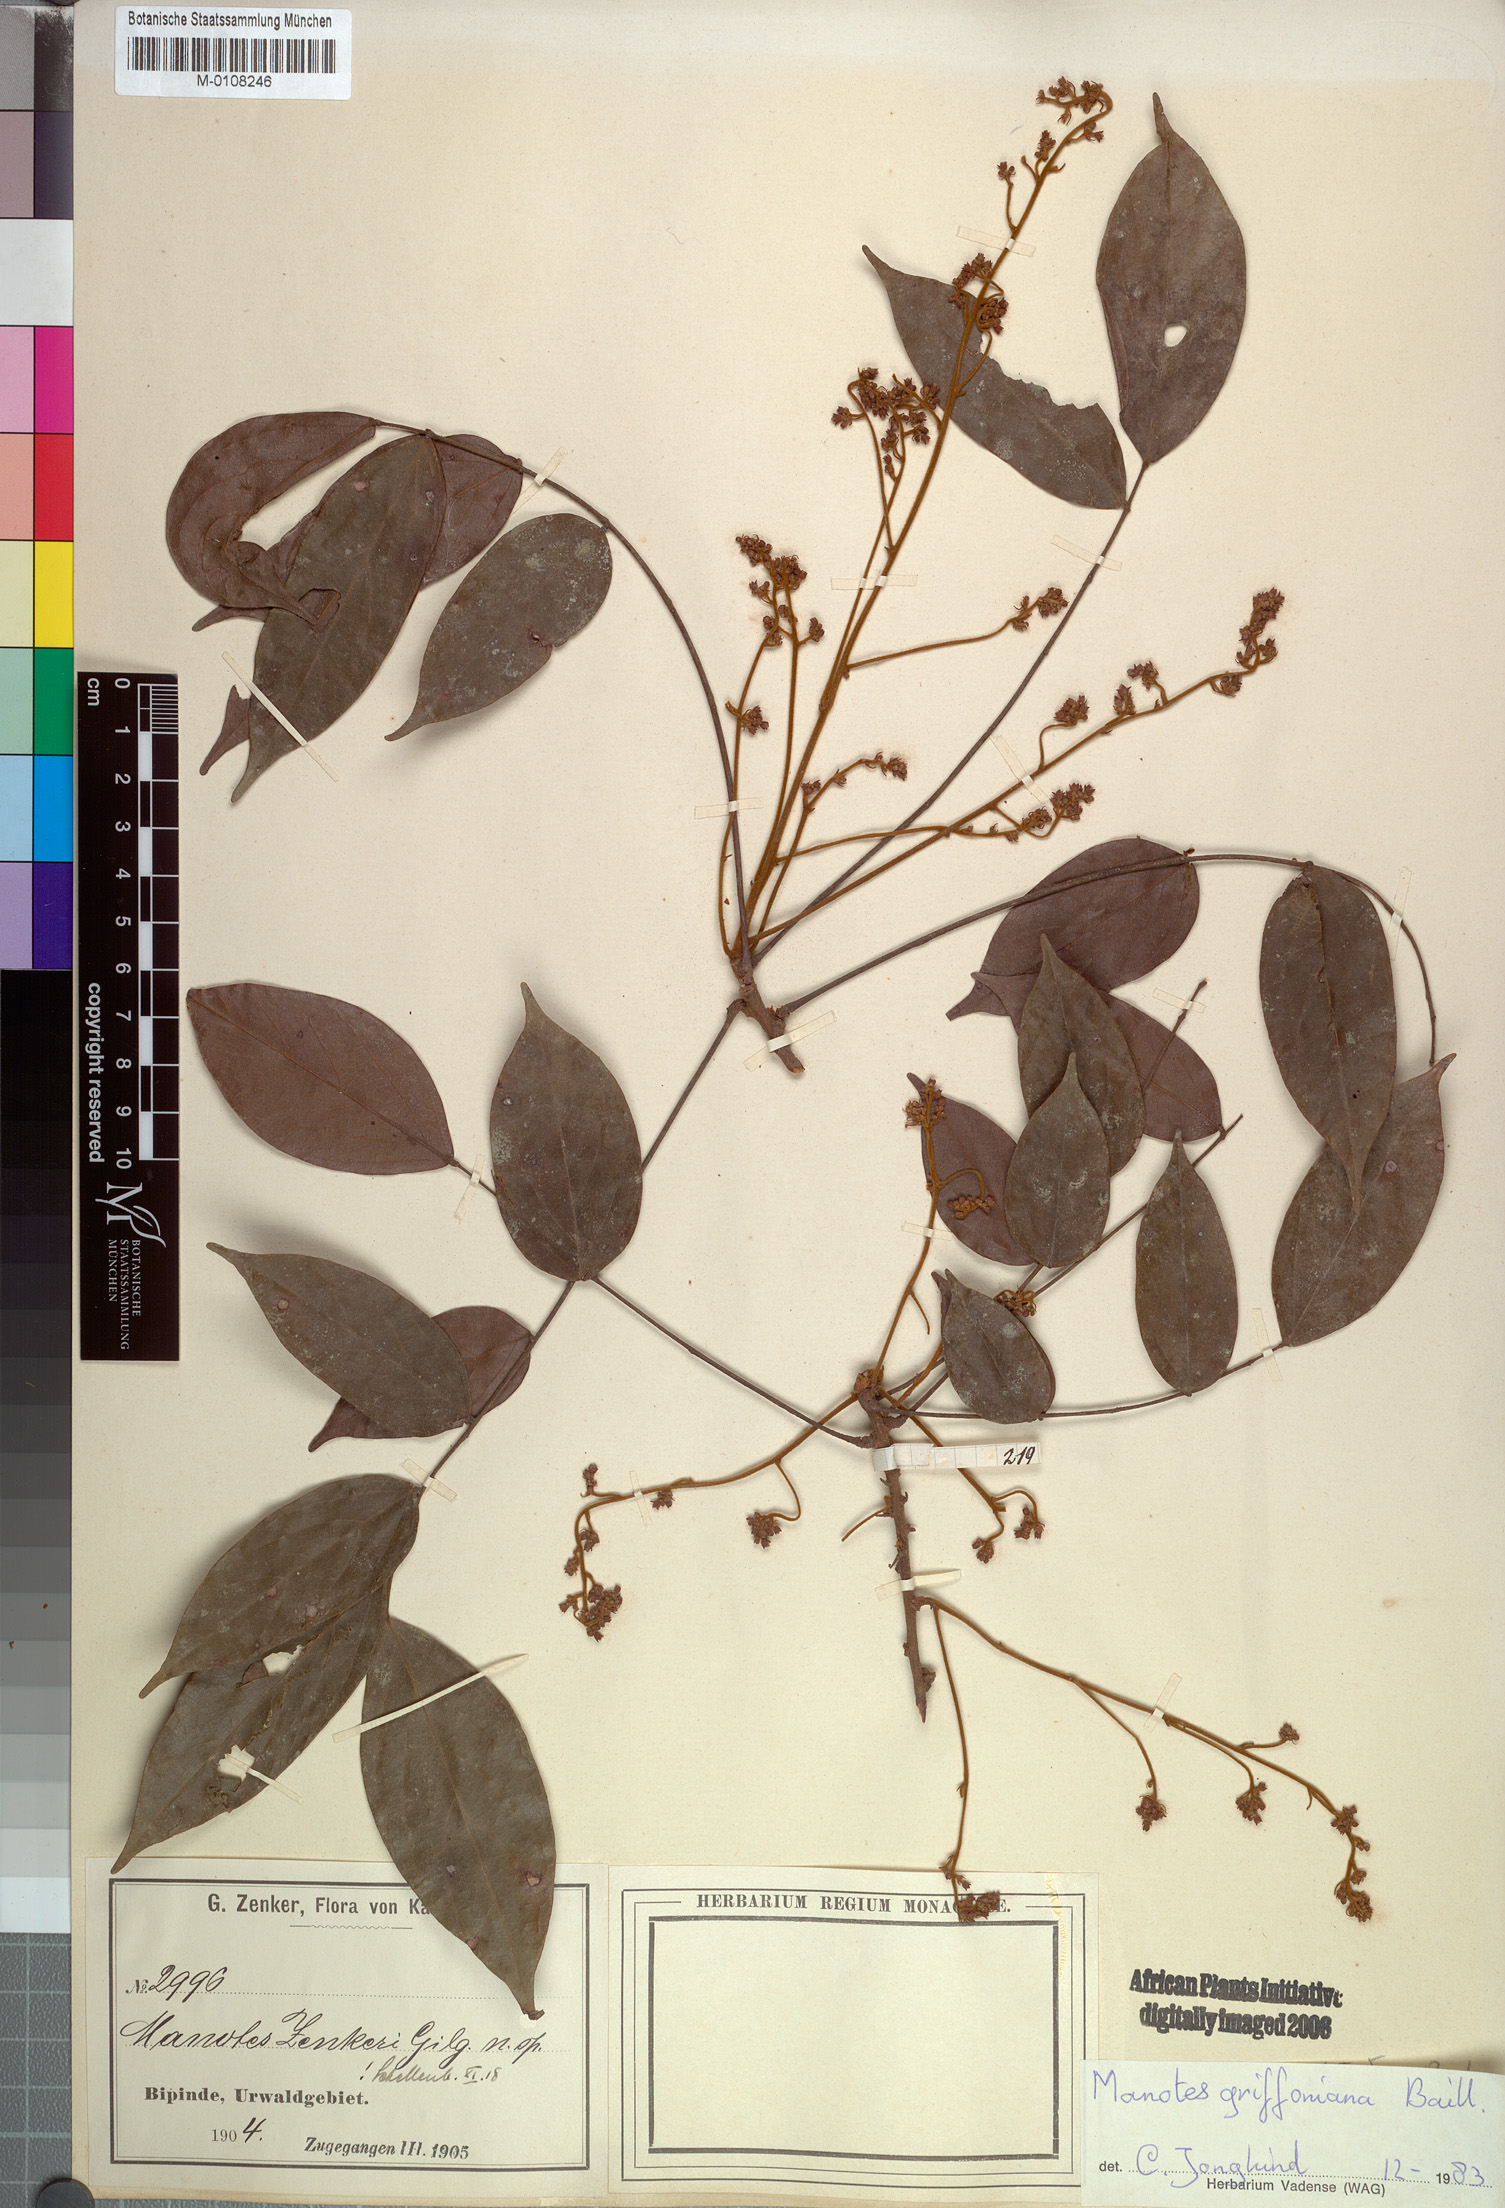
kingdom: Plantae
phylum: Tracheophyta
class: Magnoliopsida
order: Oxalidales
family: Connaraceae
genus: Manotes
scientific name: Manotes griffoniana
